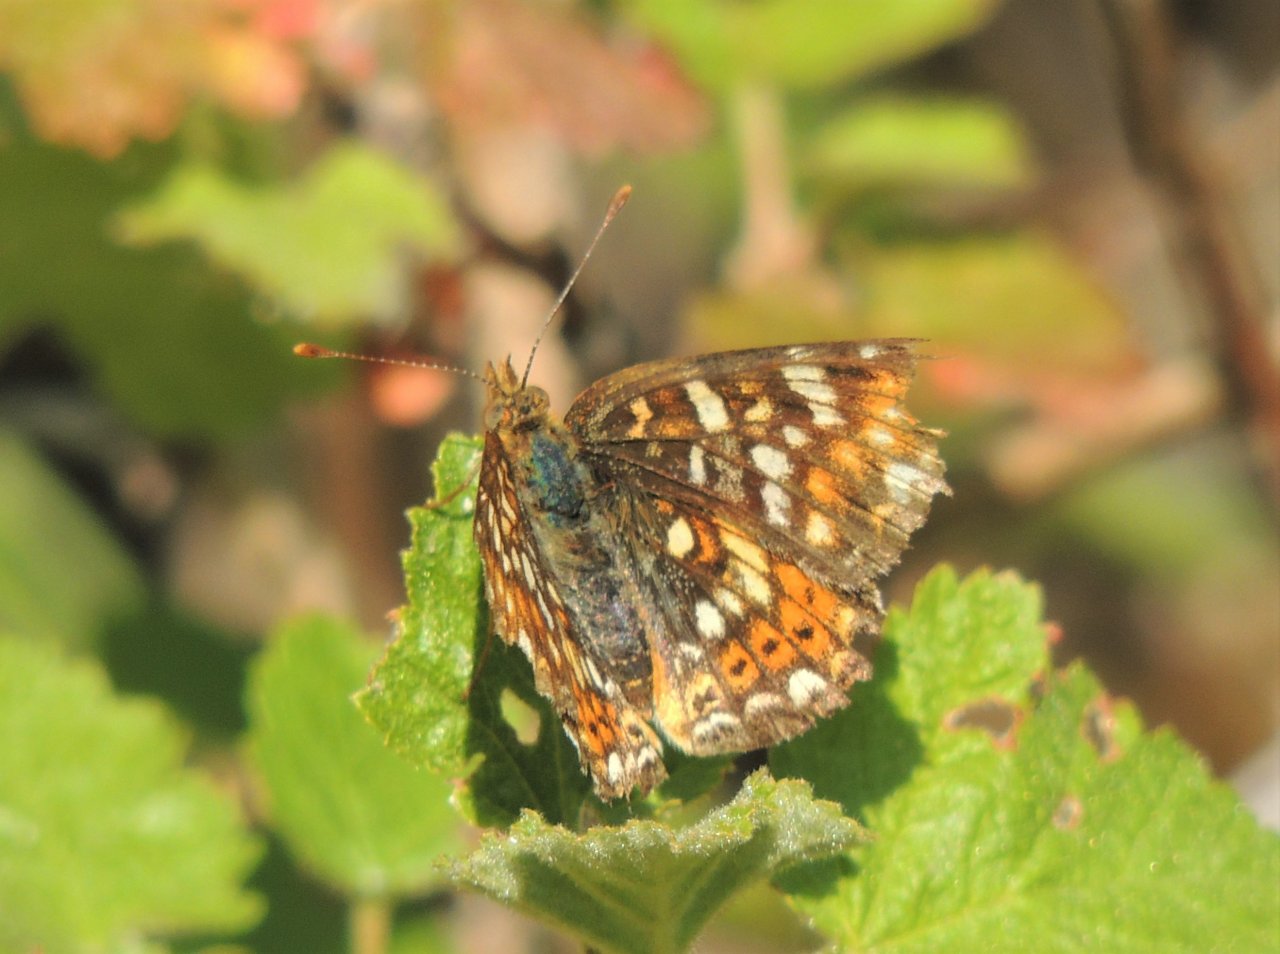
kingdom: Animalia
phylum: Arthropoda
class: Insecta
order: Lepidoptera
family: Nymphalidae
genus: Phyciodes
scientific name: Phyciodes tharos
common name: Field Crescent
